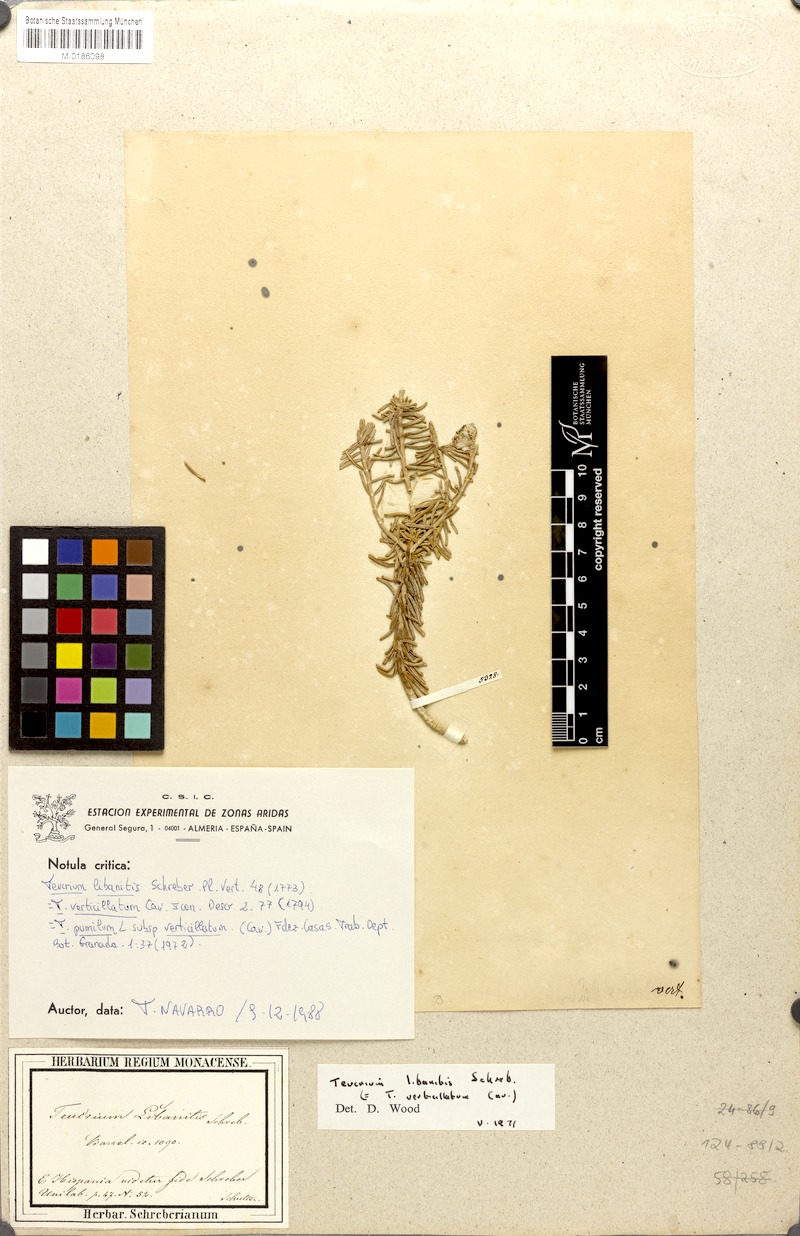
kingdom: Plantae
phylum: Tracheophyta
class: Magnoliopsida
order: Lamiales
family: Lamiaceae
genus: Teucrium
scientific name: Teucrium libanitis
